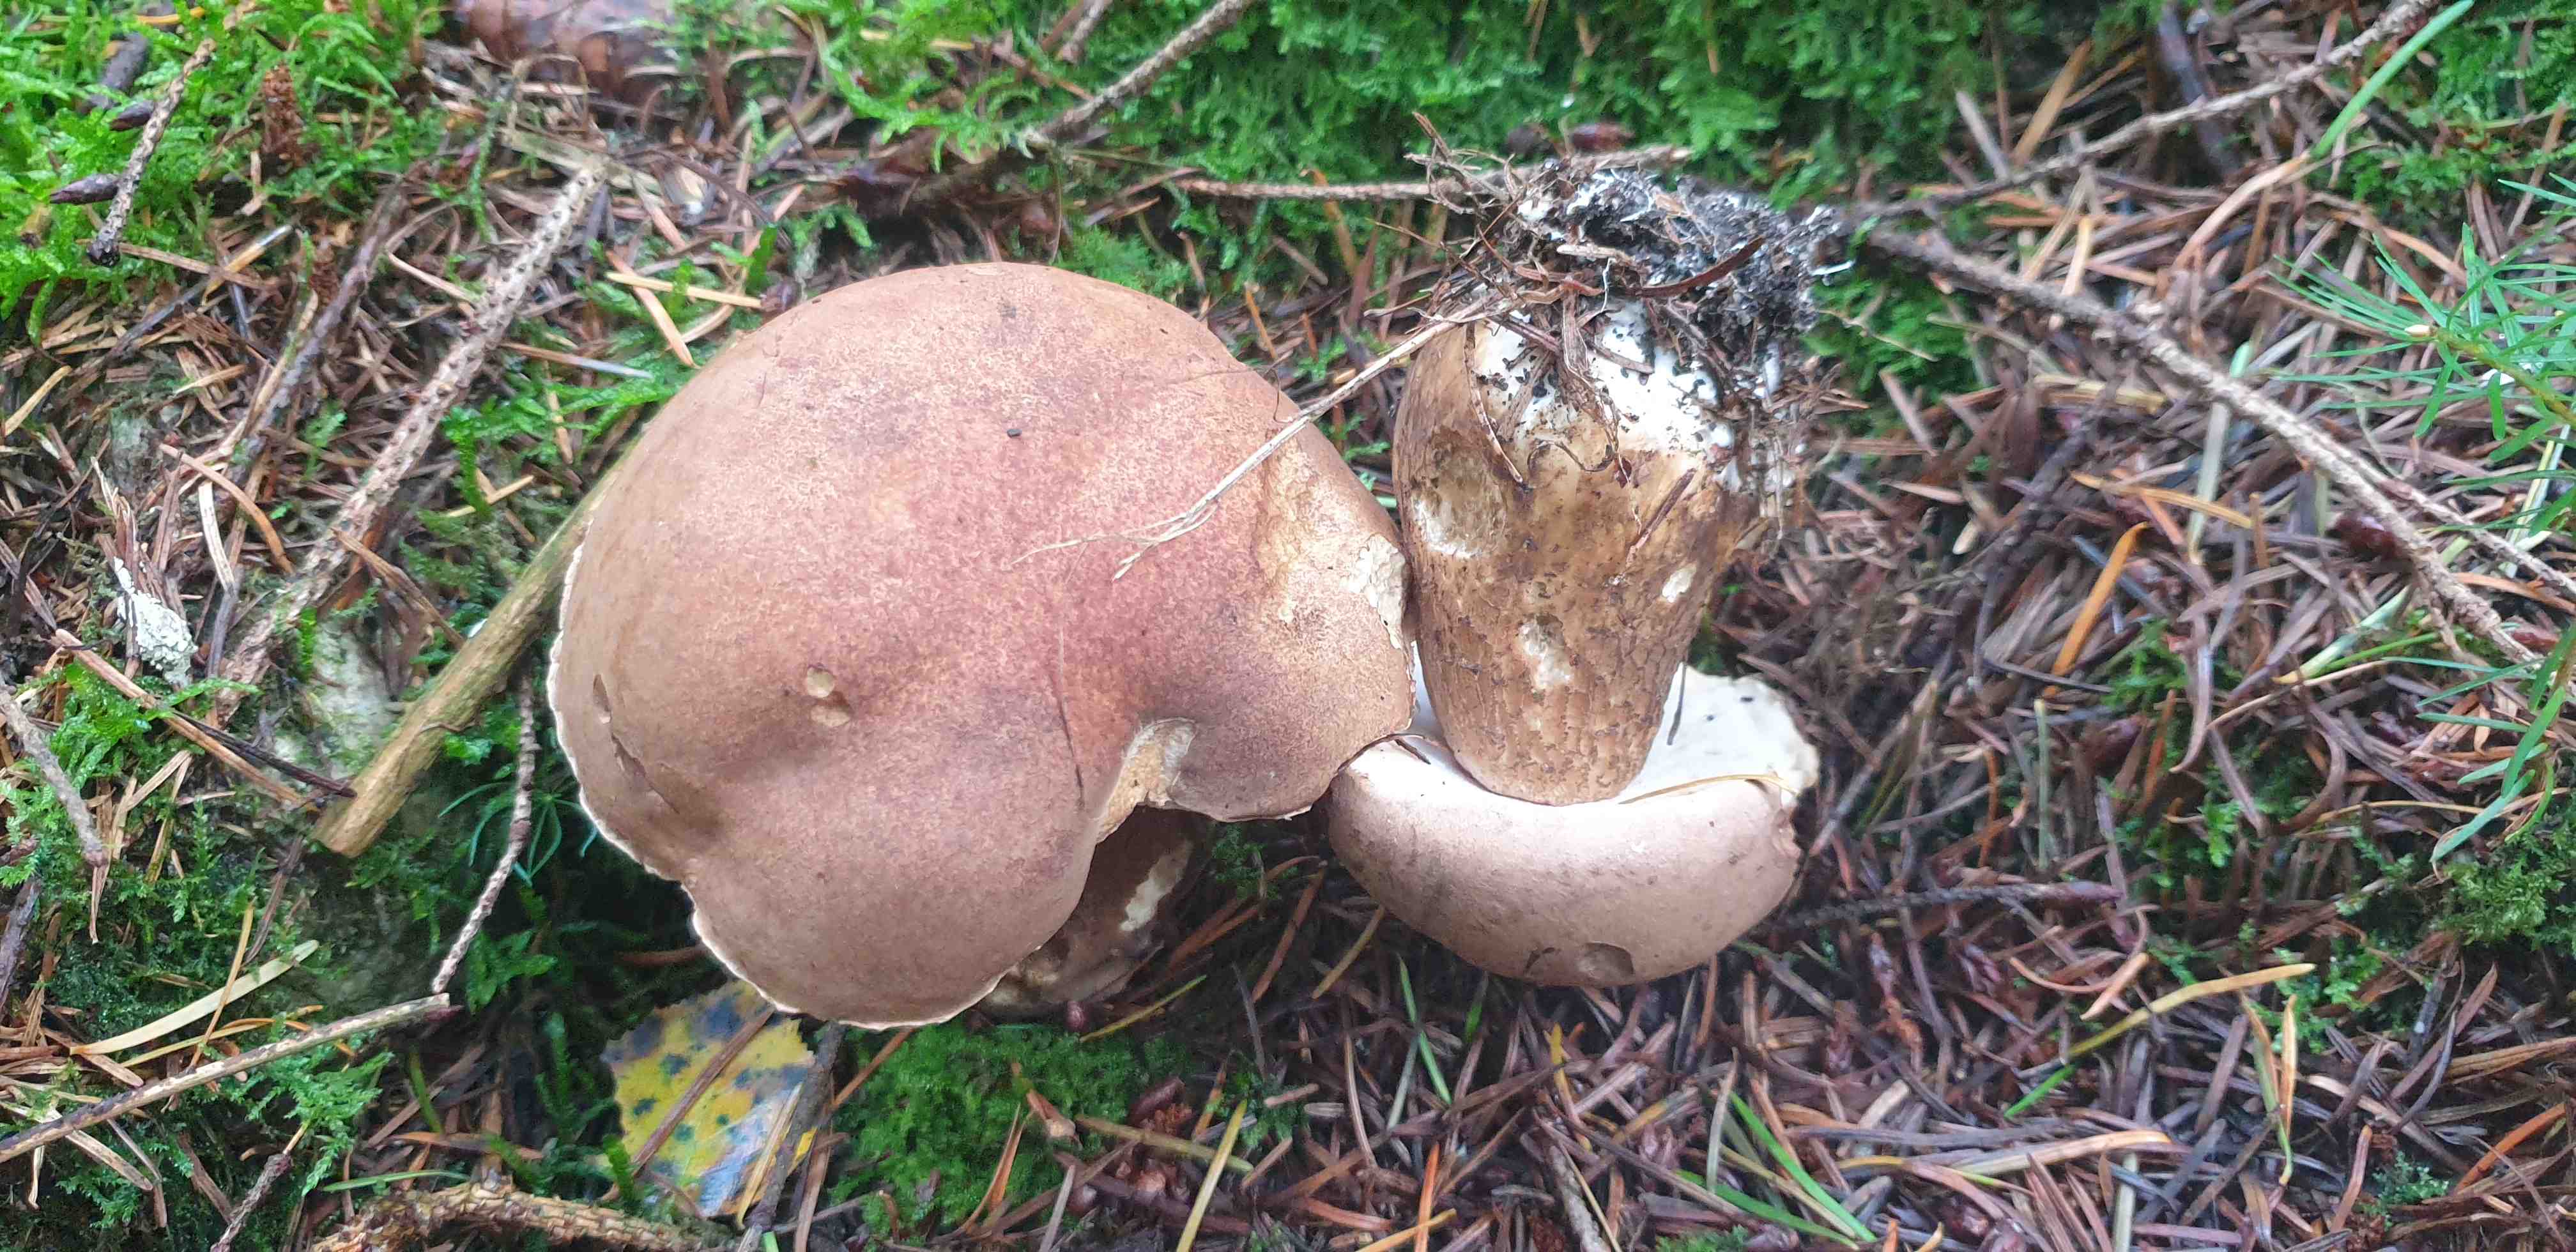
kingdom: Fungi
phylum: Basidiomycota
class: Agaricomycetes
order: Boletales
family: Boletaceae
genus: Tylopilus
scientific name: Tylopilus felleus
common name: galderørhat
